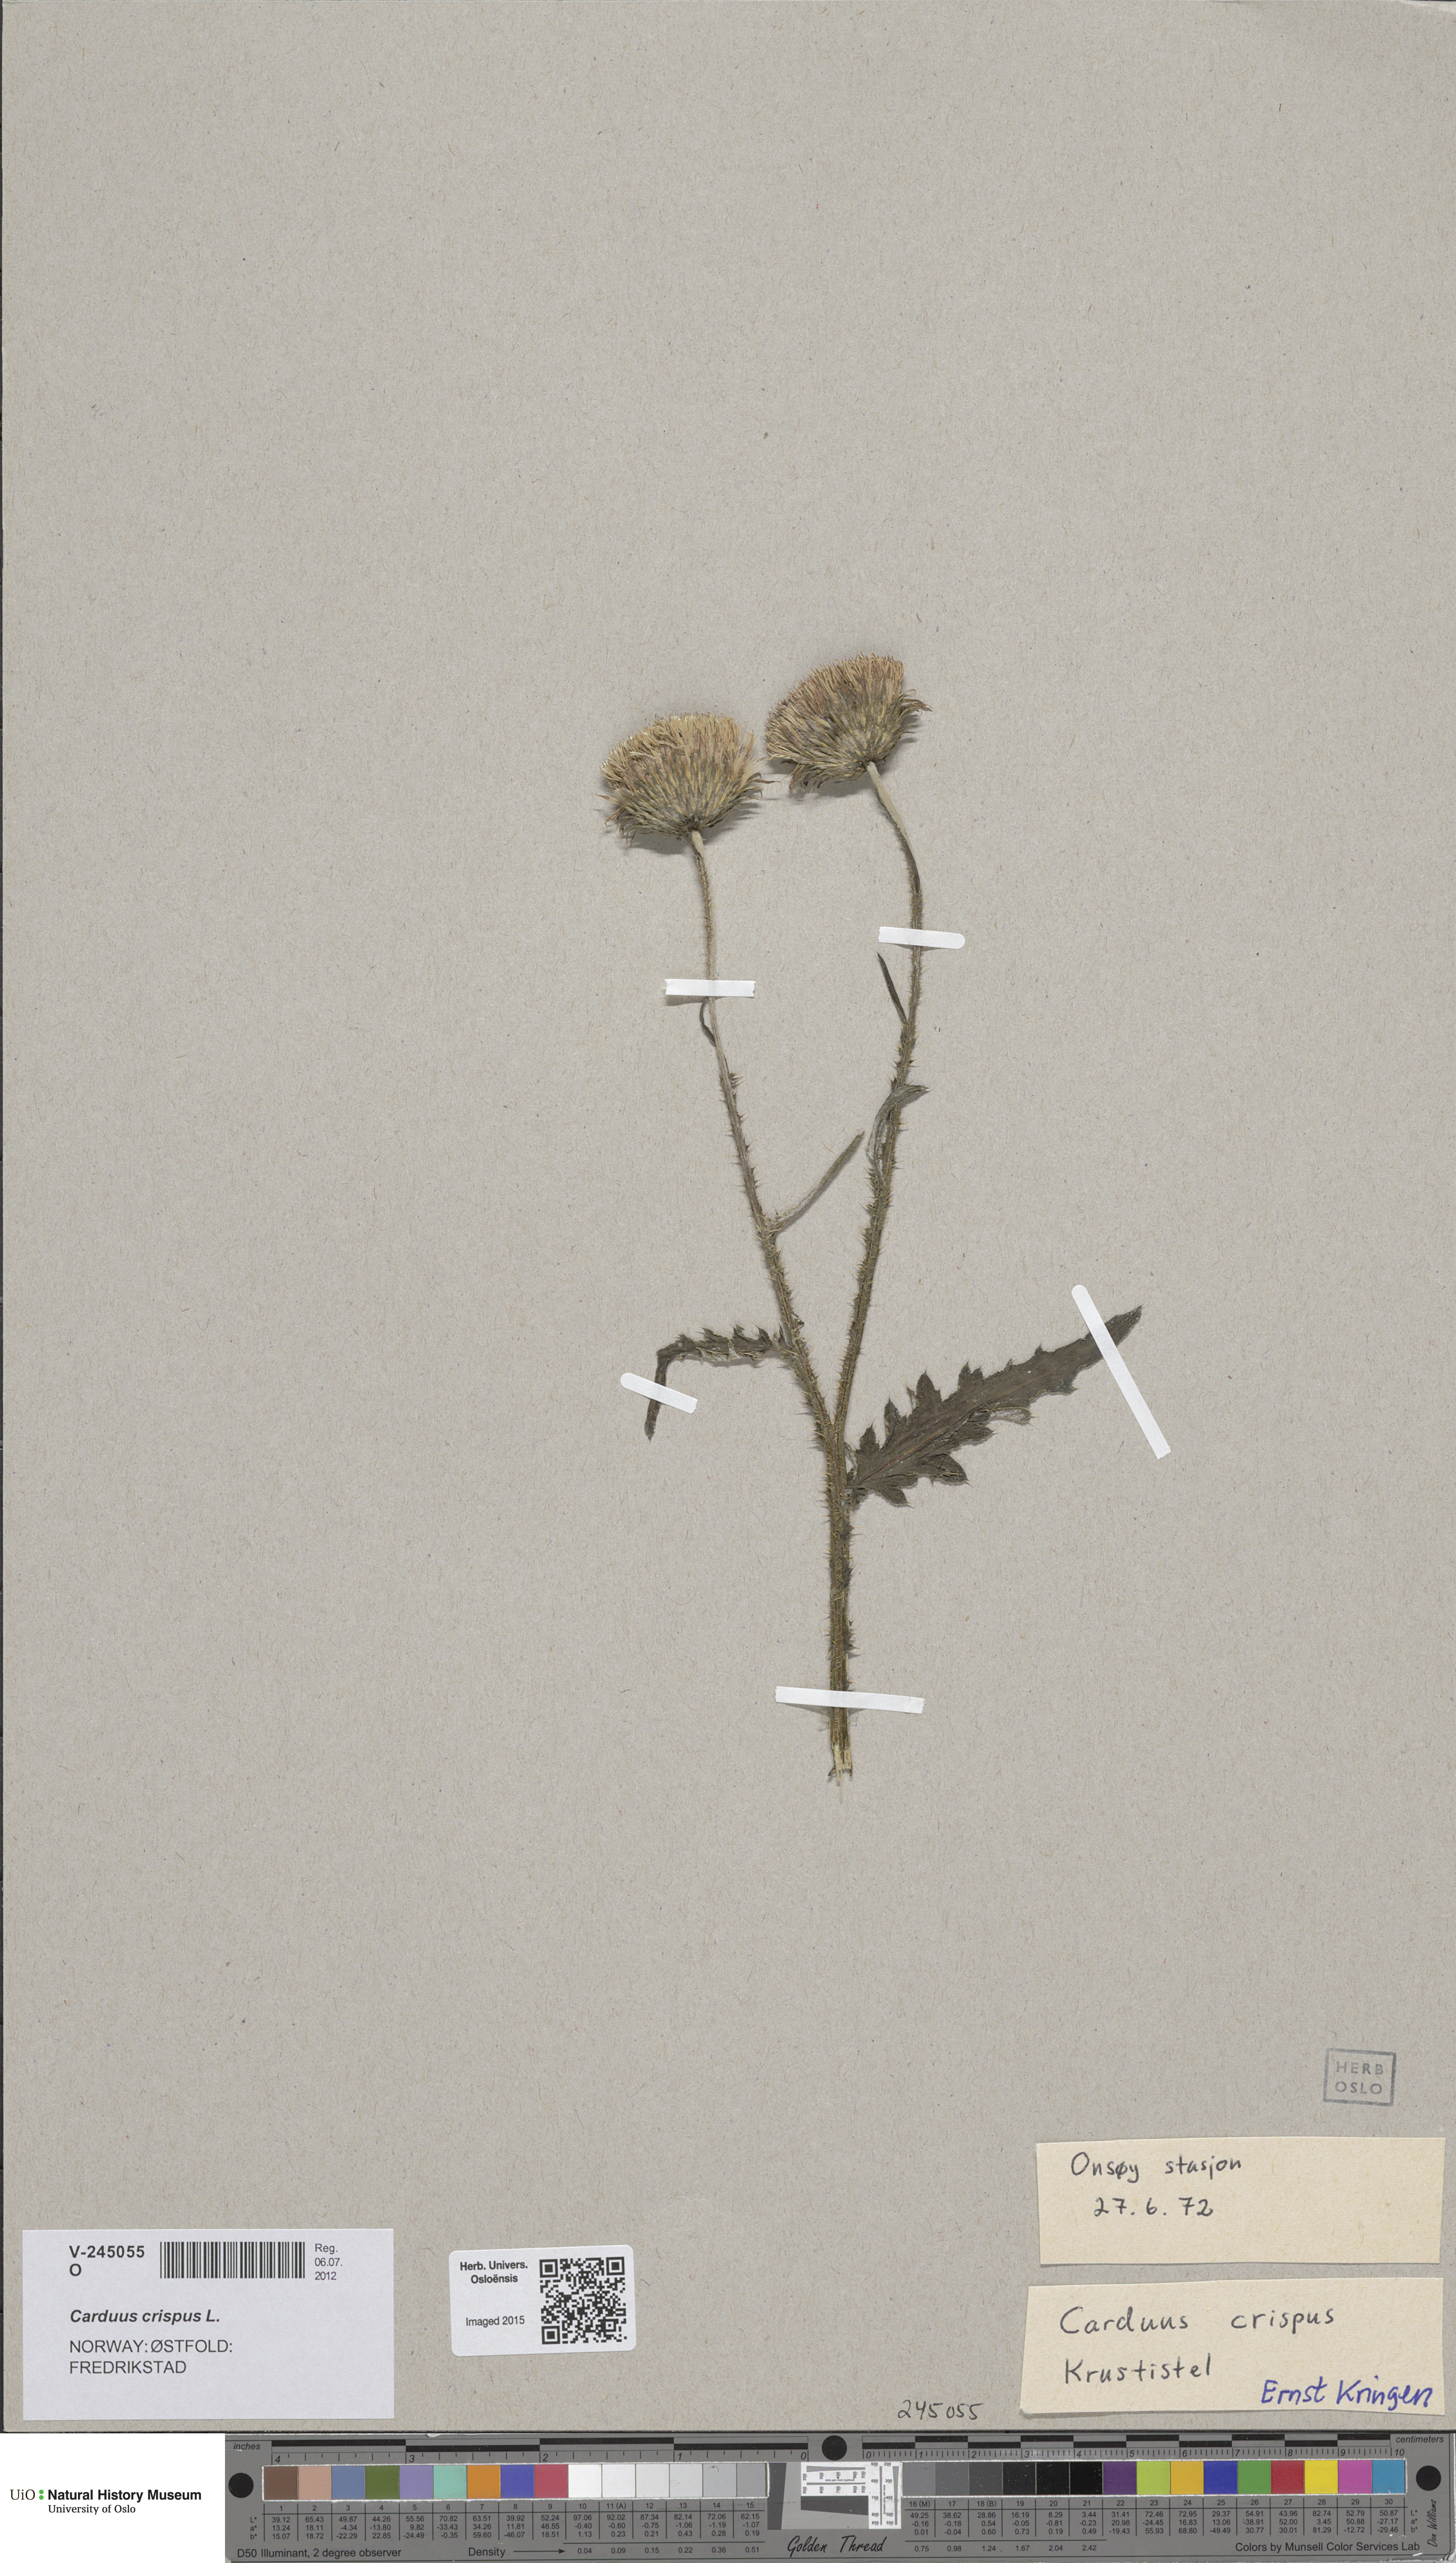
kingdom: Plantae
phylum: Tracheophyta
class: Magnoliopsida
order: Asterales
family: Asteraceae
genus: Carduus
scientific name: Carduus crispus
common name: Welted thistle
